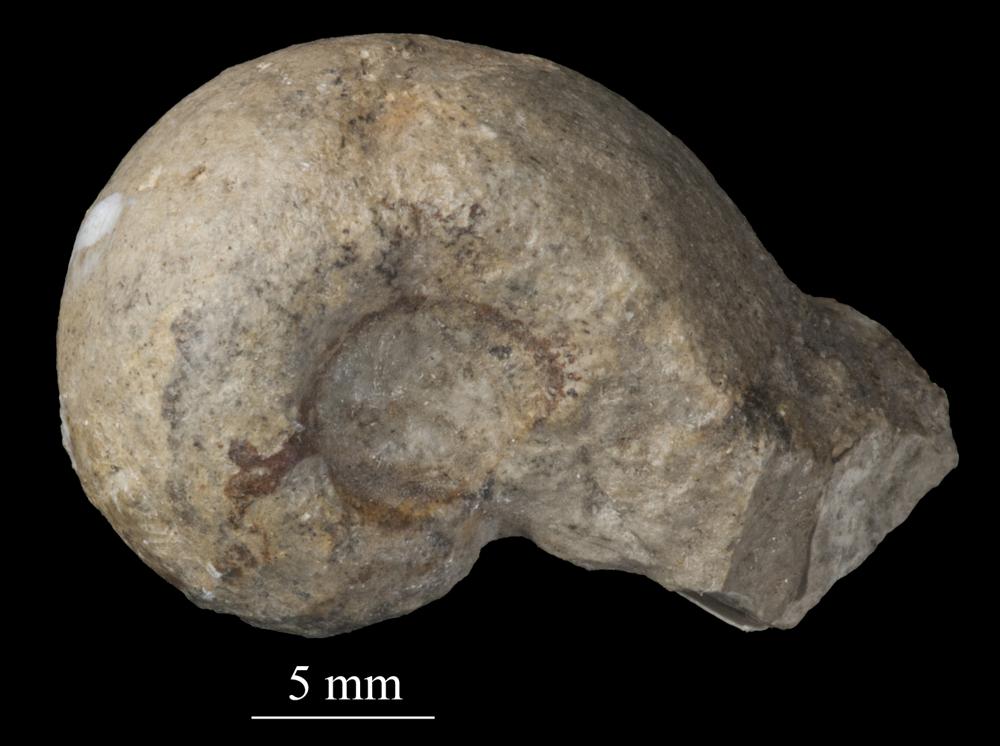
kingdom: Animalia
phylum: Mollusca
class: Gastropoda
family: Bellerophontidae
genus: Bellerophon
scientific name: Bellerophon
